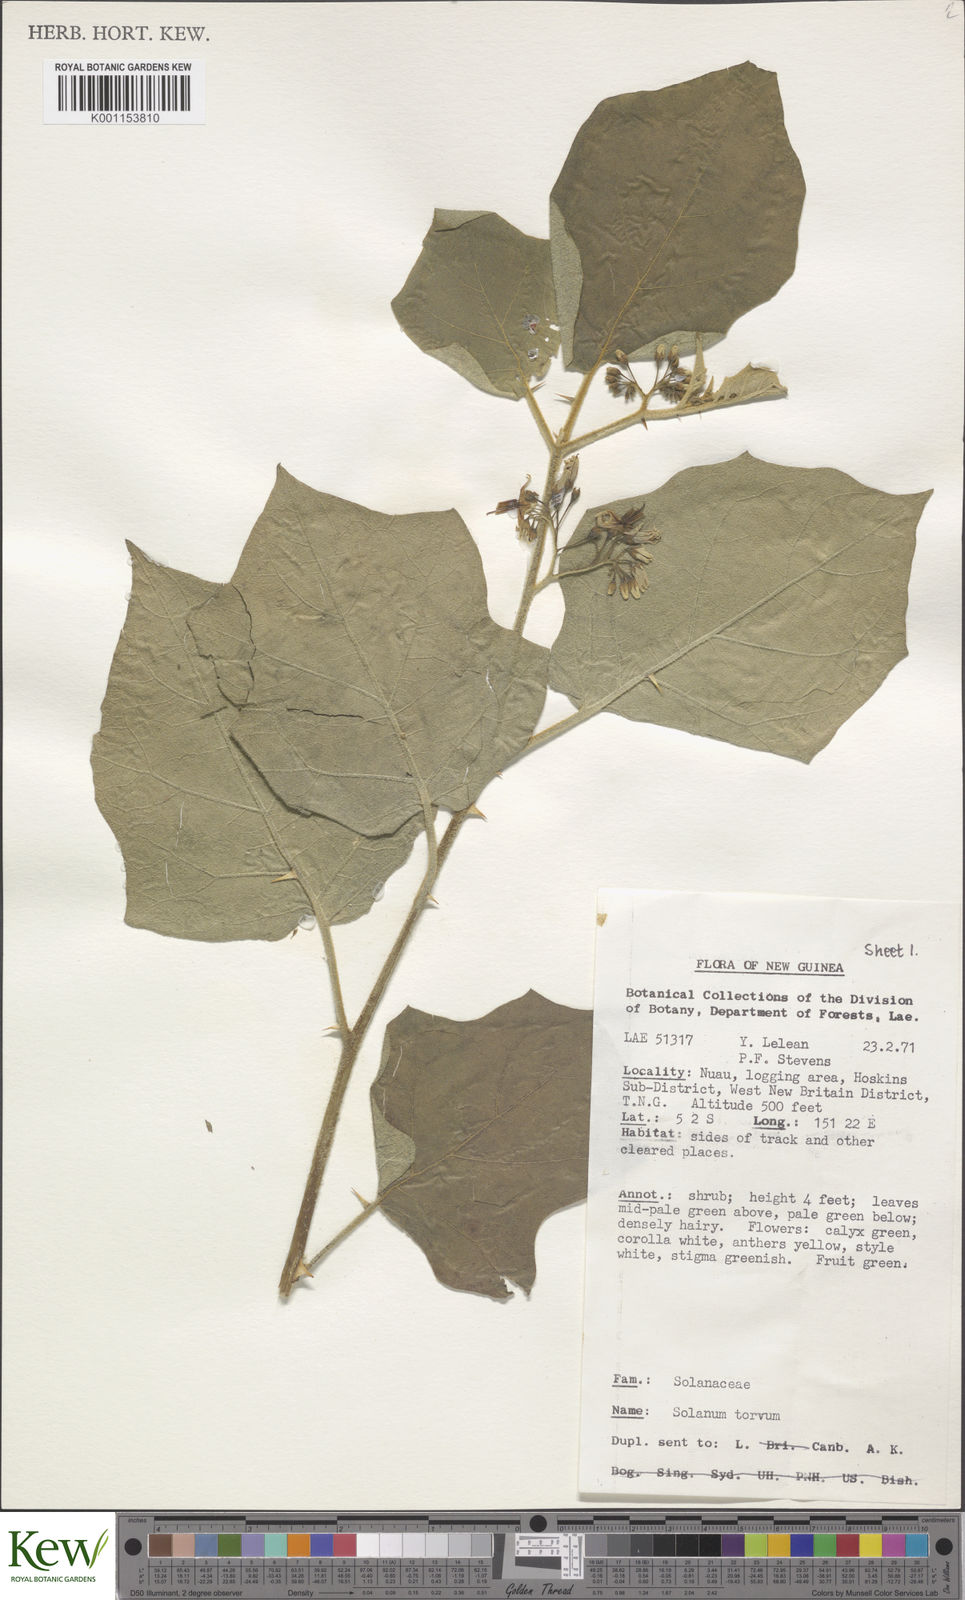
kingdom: Plantae
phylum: Tracheophyta
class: Magnoliopsida
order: Solanales
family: Solanaceae
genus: Solanum
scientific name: Solanum torvum
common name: Turkey berry
